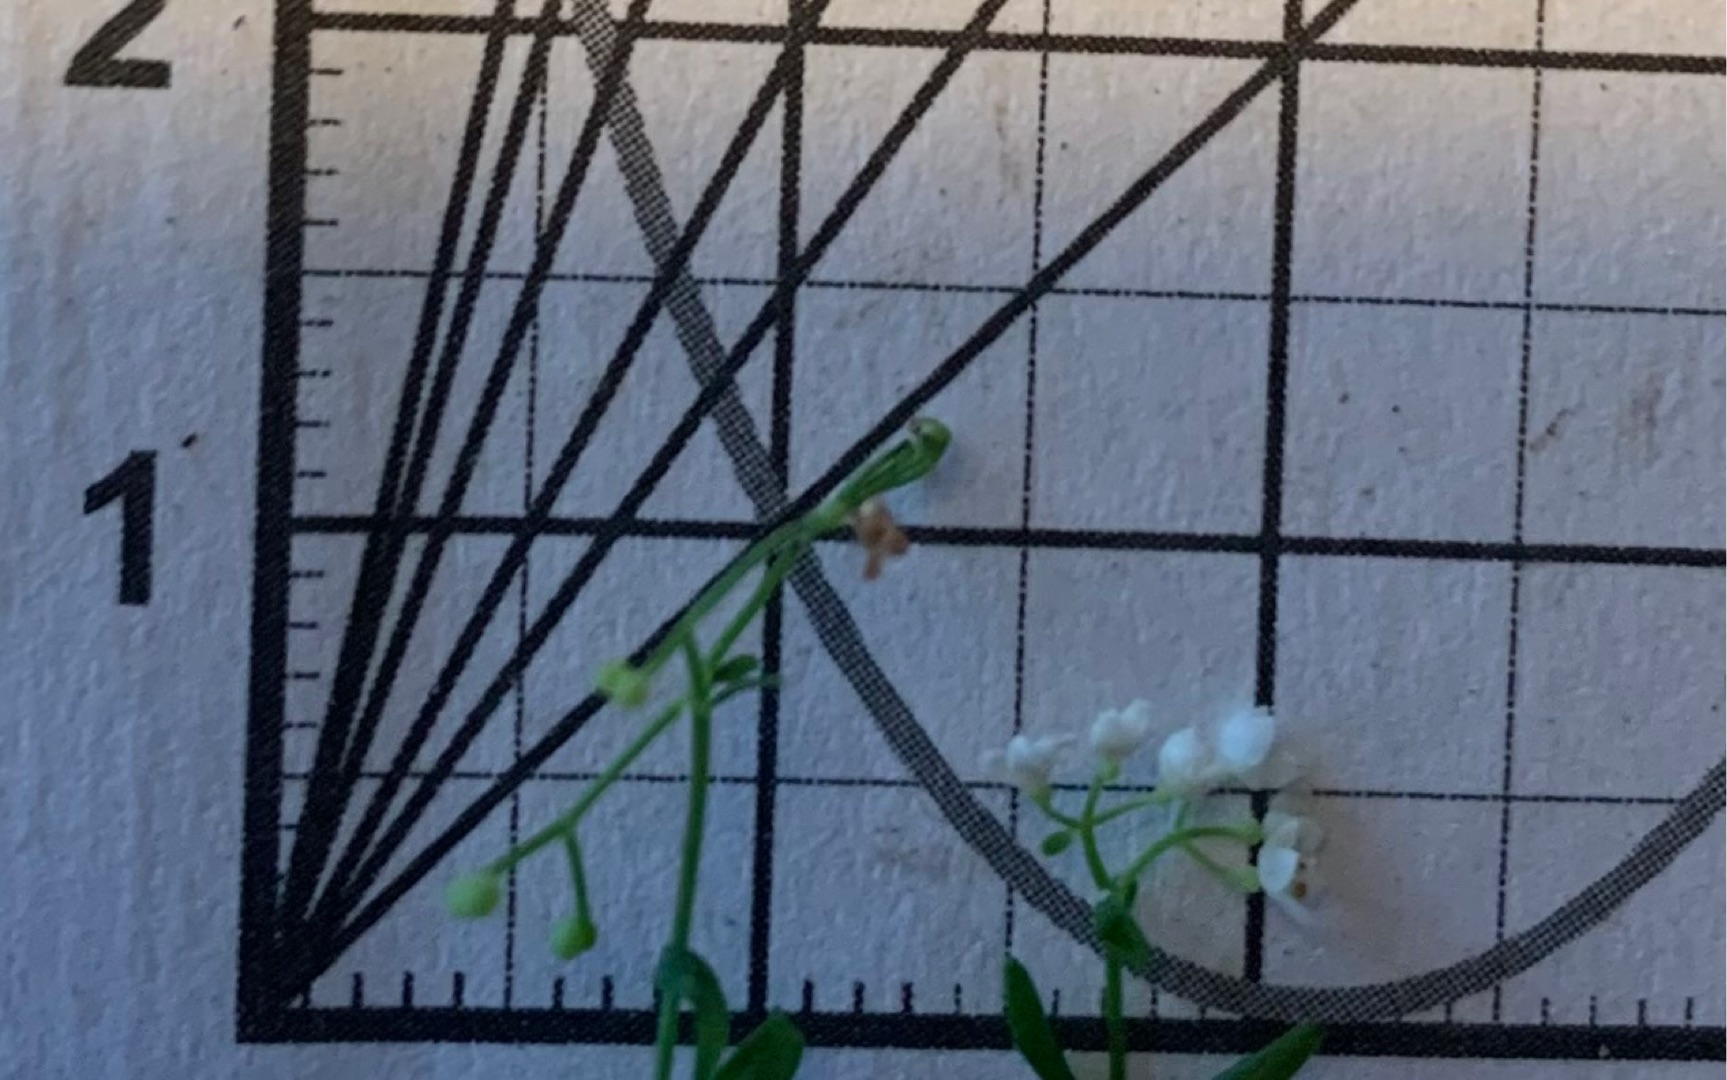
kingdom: Plantae
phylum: Tracheophyta
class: Magnoliopsida
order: Gentianales
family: Rubiaceae
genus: Galium
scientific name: Galium palustre
